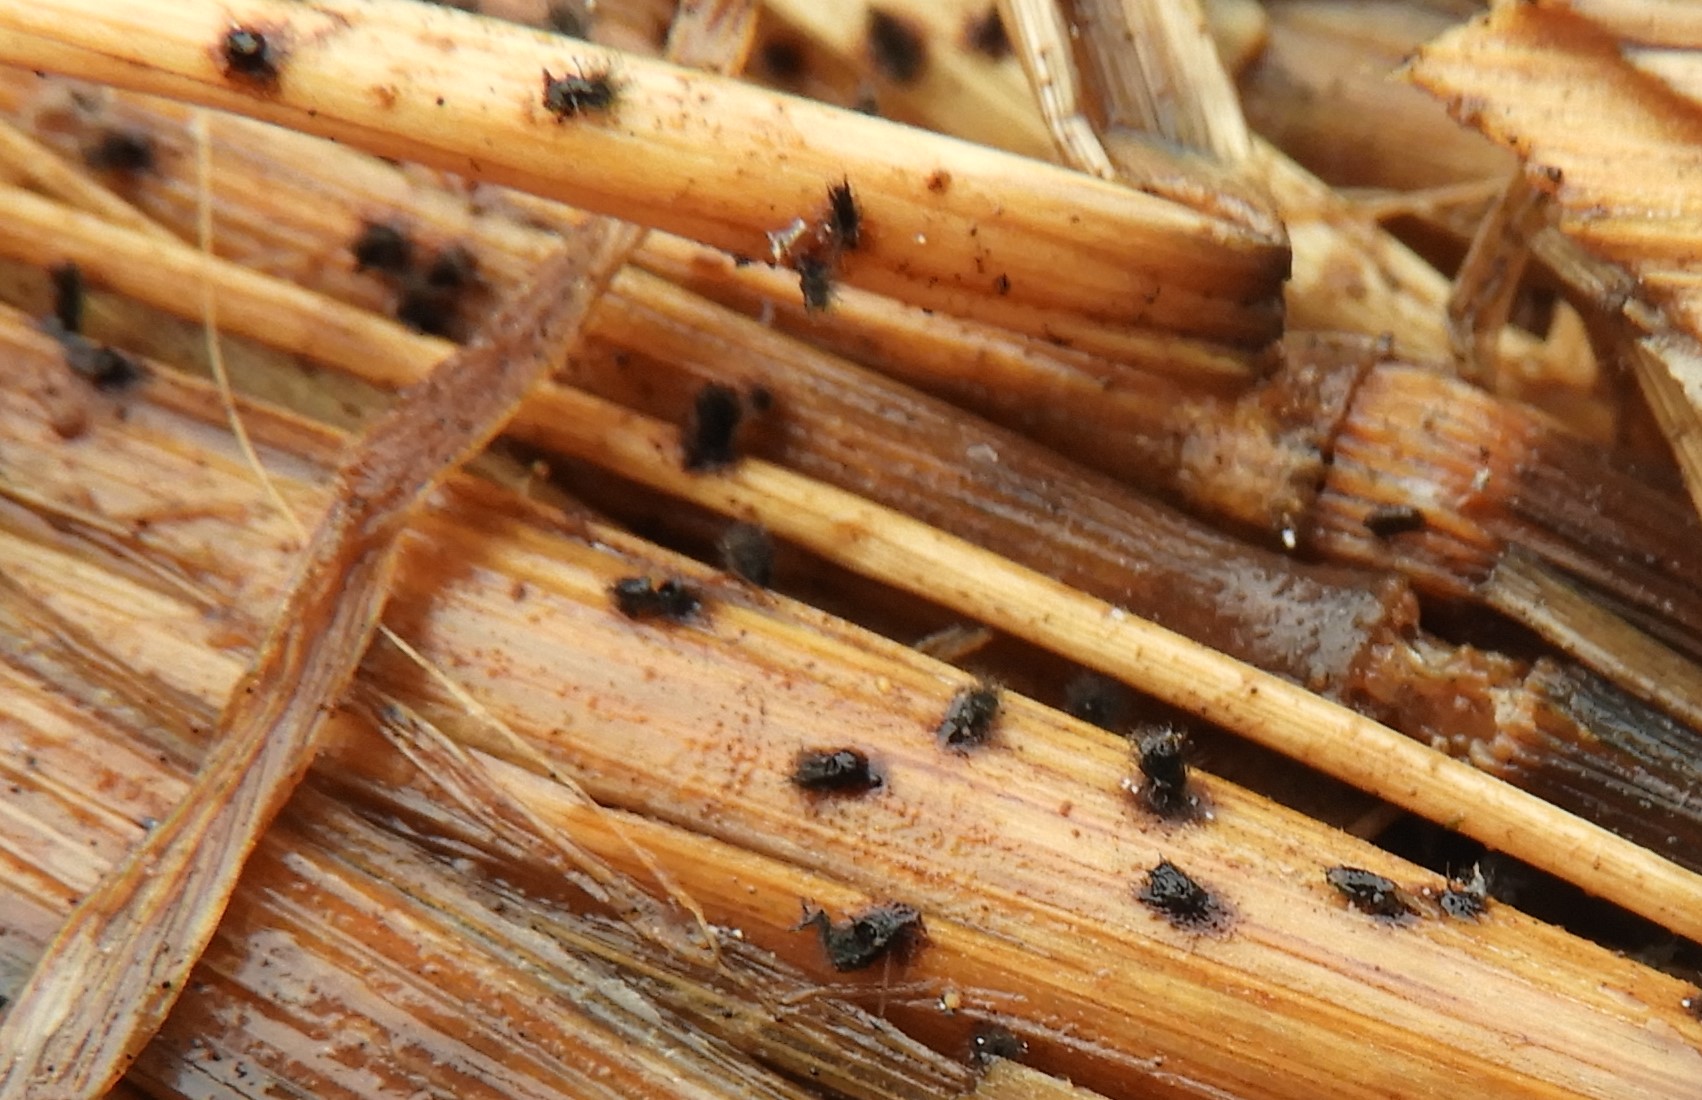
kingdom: Fungi
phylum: Ascomycota
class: Sordariomycetes
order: Sordariales
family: Chaetomiaceae
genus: Chaetomium
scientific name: Chaetomium
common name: søjlekerne
